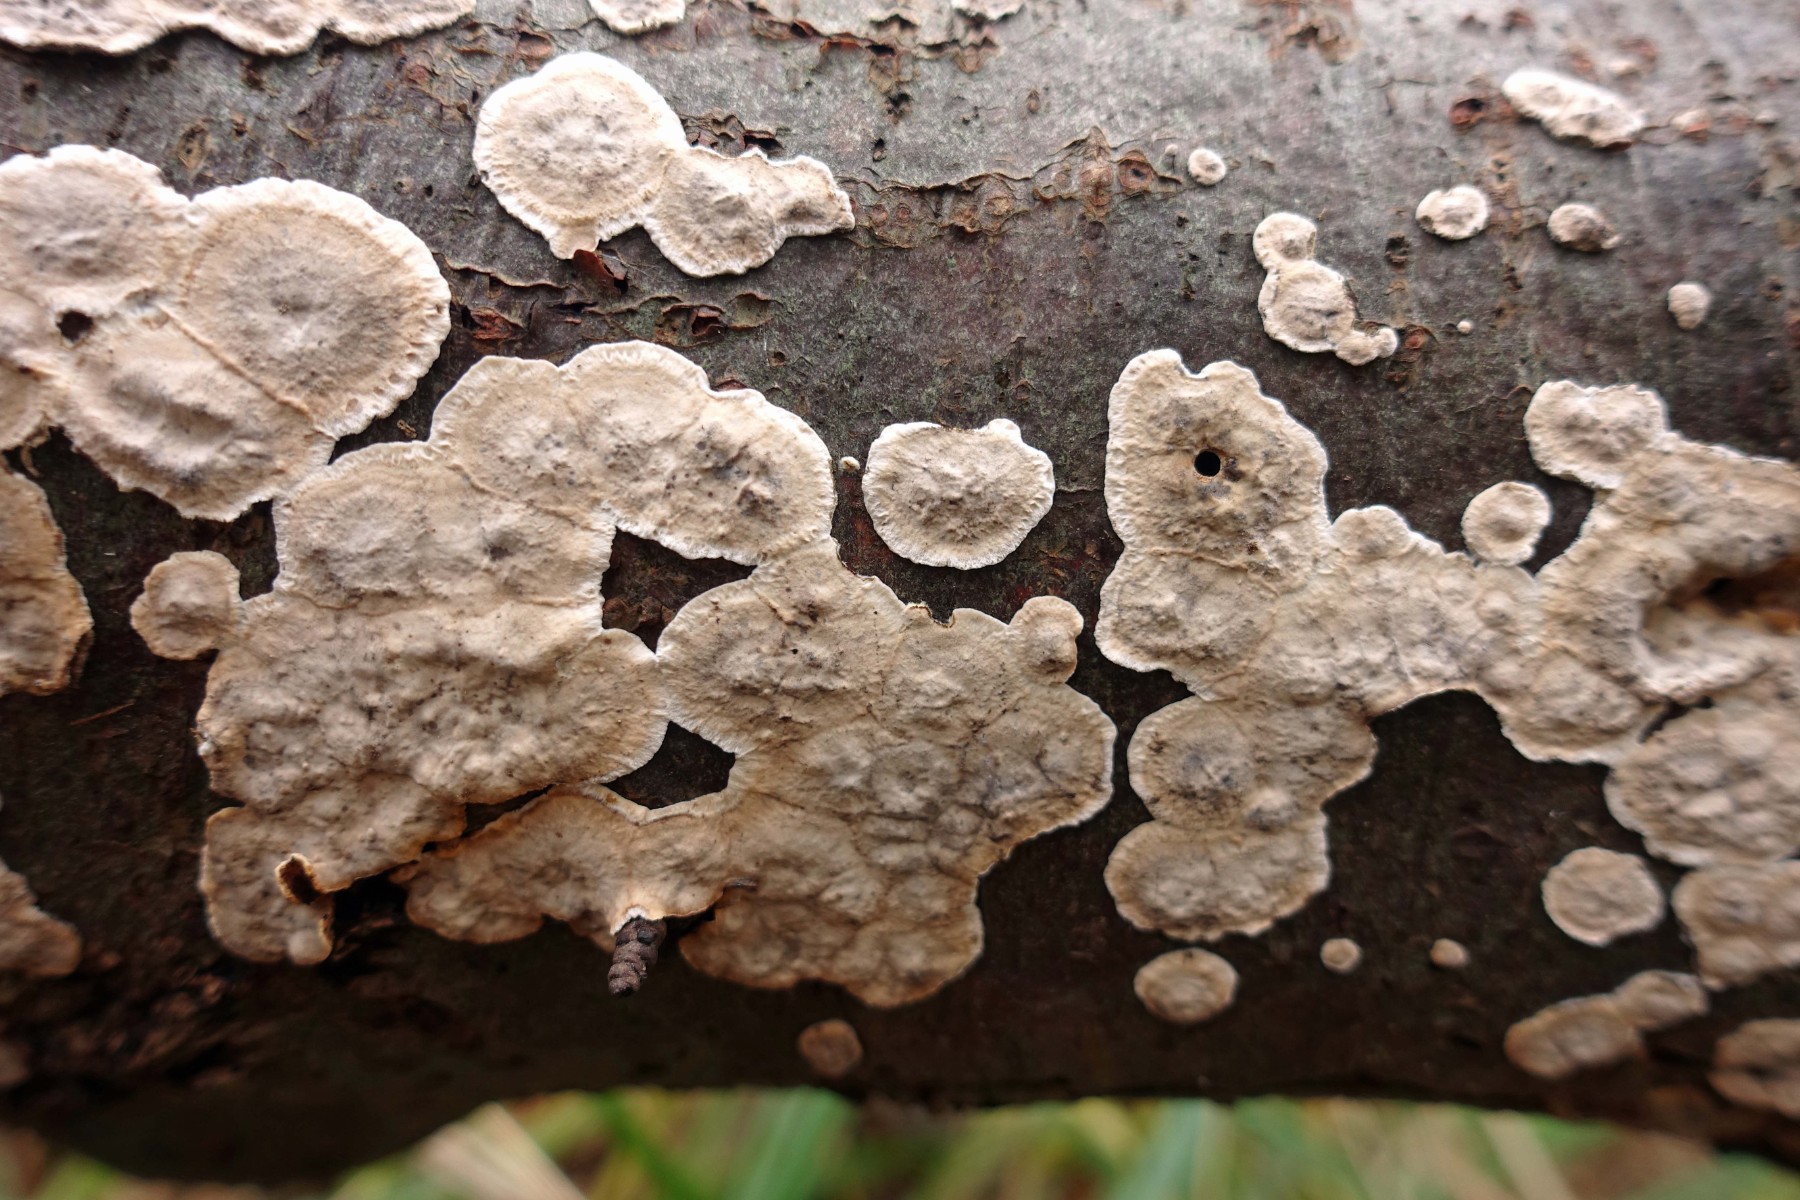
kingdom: Fungi
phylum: Basidiomycota
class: Agaricomycetes
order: Russulales
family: Stereaceae
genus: Stereum
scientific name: Stereum rugosum
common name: rynket lædersvamp
